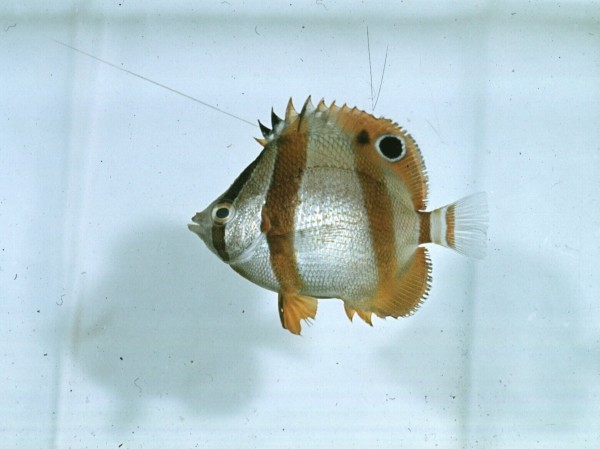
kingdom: Animalia
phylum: Chordata
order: Perciformes
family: Chaetodontidae
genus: Chaetodon
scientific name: Chaetodon marleyi
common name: Doubledash butterflyfish
